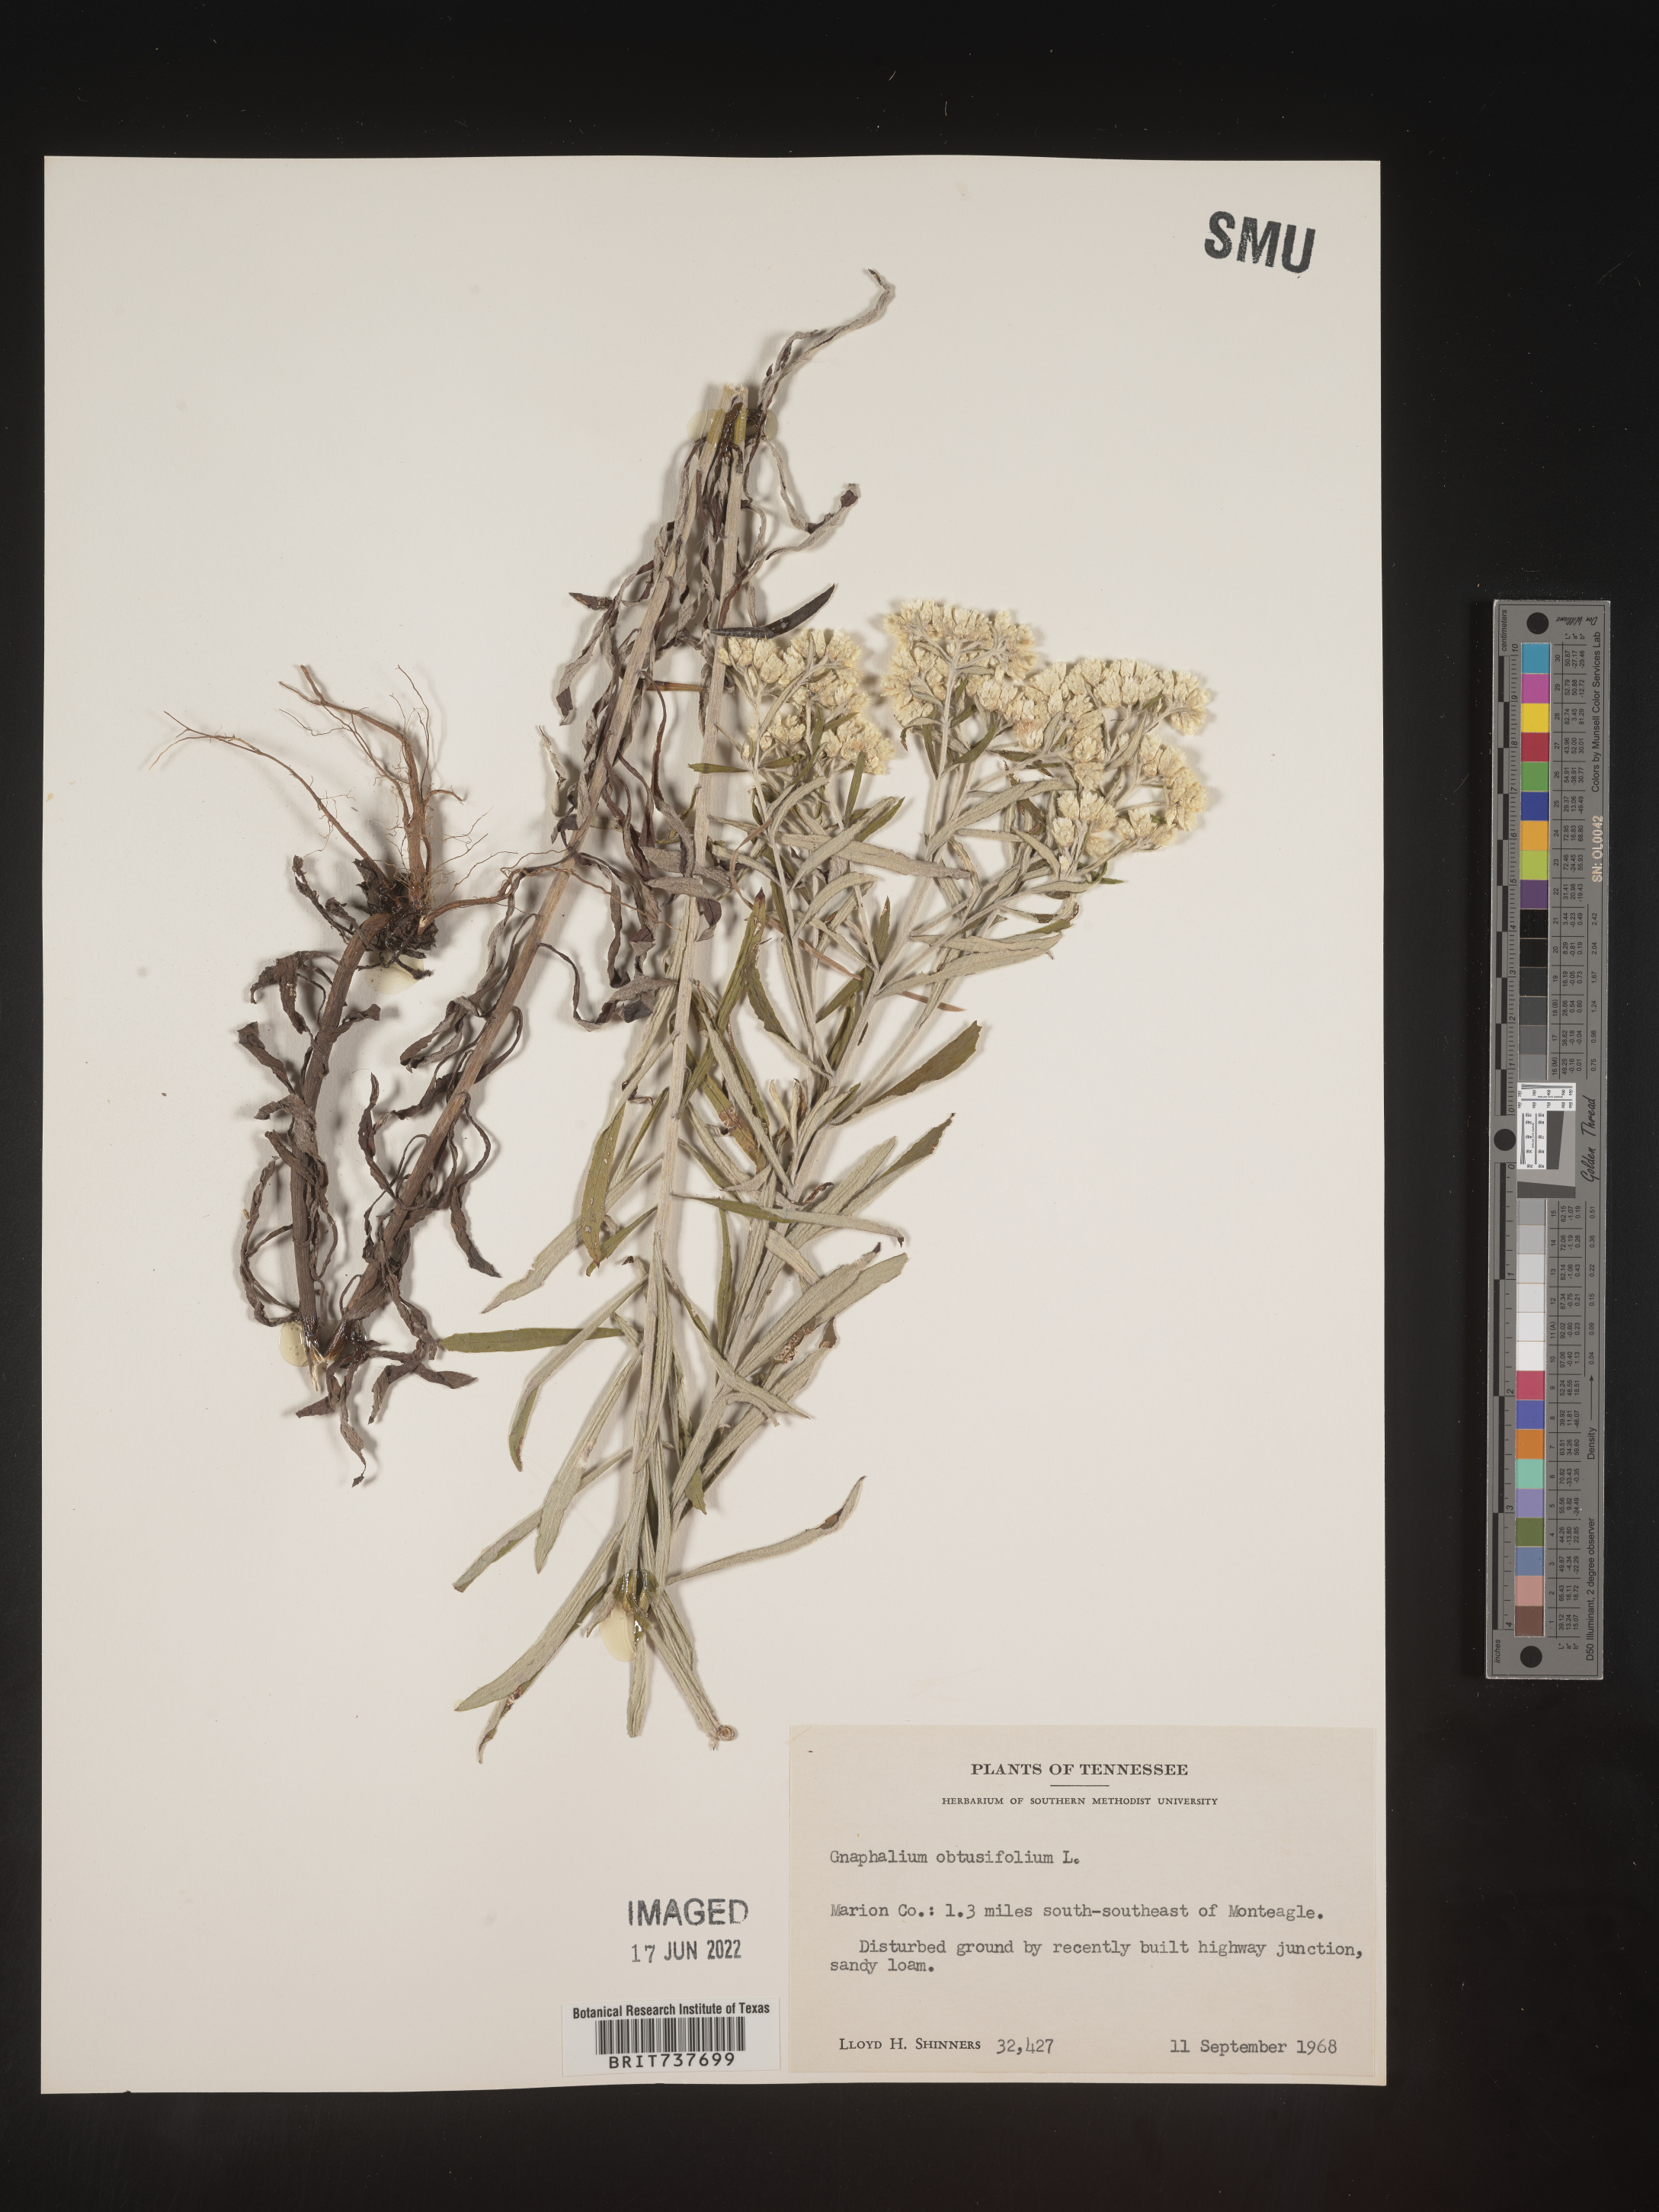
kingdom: Plantae
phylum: Tracheophyta
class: Magnoliopsida
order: Asterales
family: Asteraceae
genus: Pseudognaphalium
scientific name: Pseudognaphalium obtusifolium
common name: Eastern rabbit-tobacco
